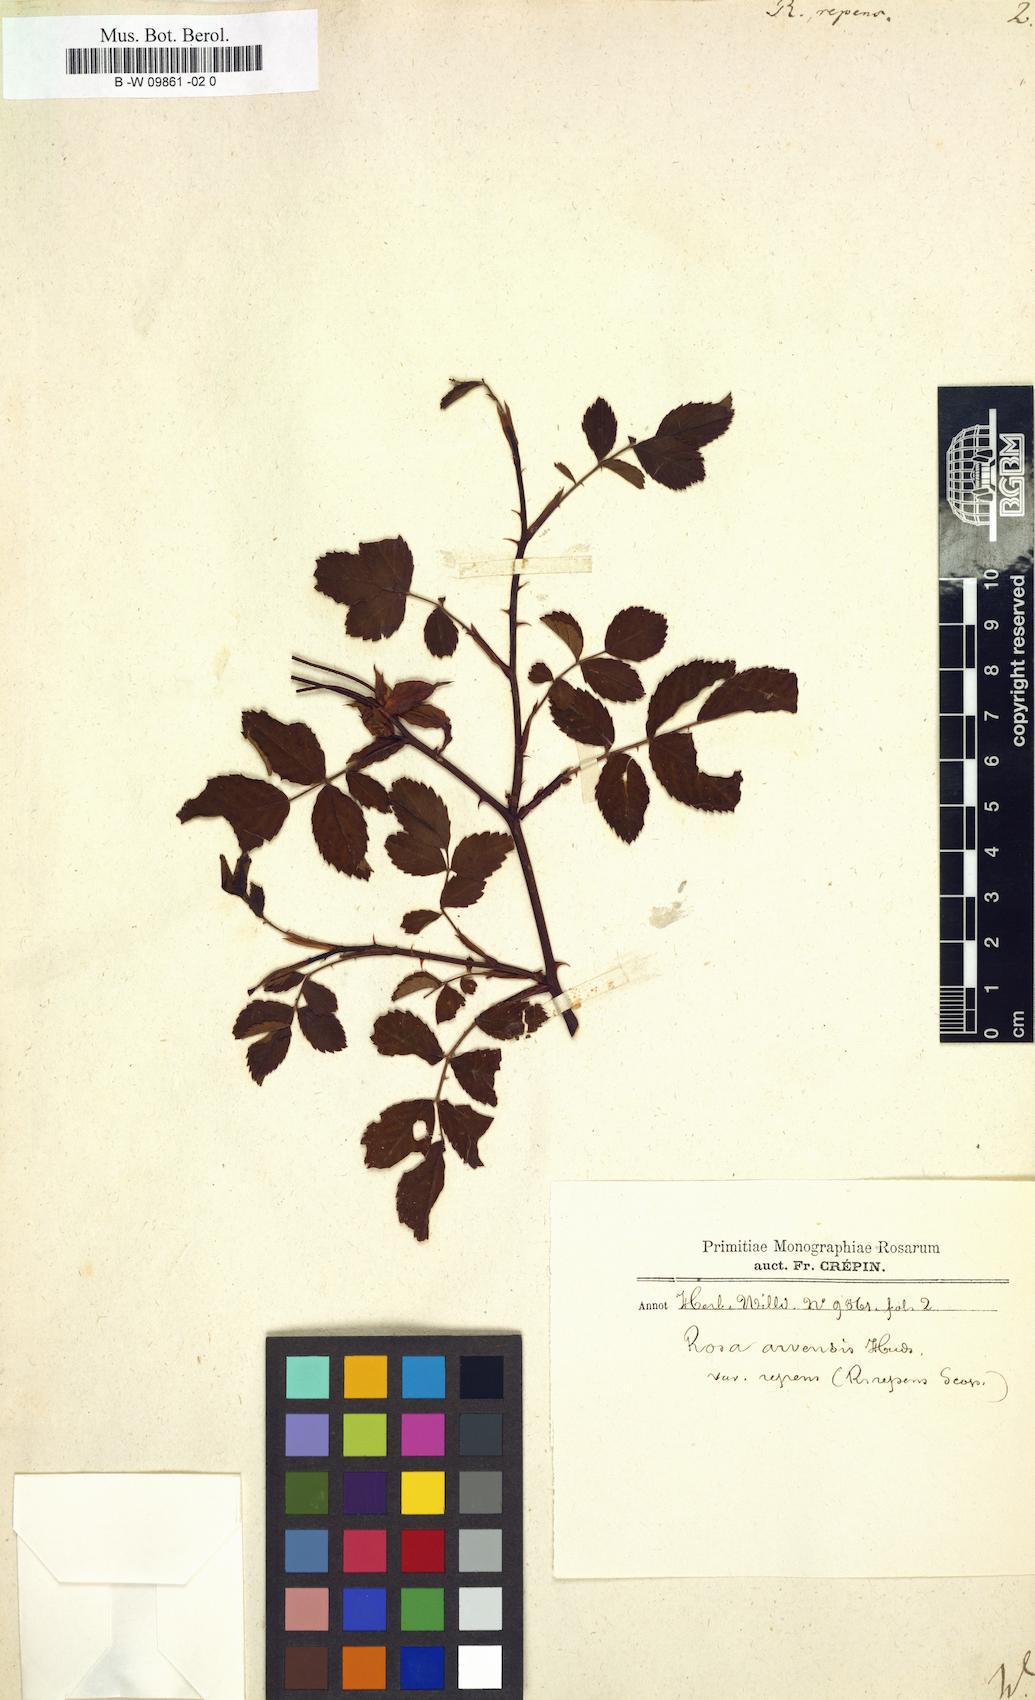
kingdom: Plantae
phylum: Tracheophyta
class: Magnoliopsida
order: Rosales
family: Rosaceae
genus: Rosa
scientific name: Rosa
